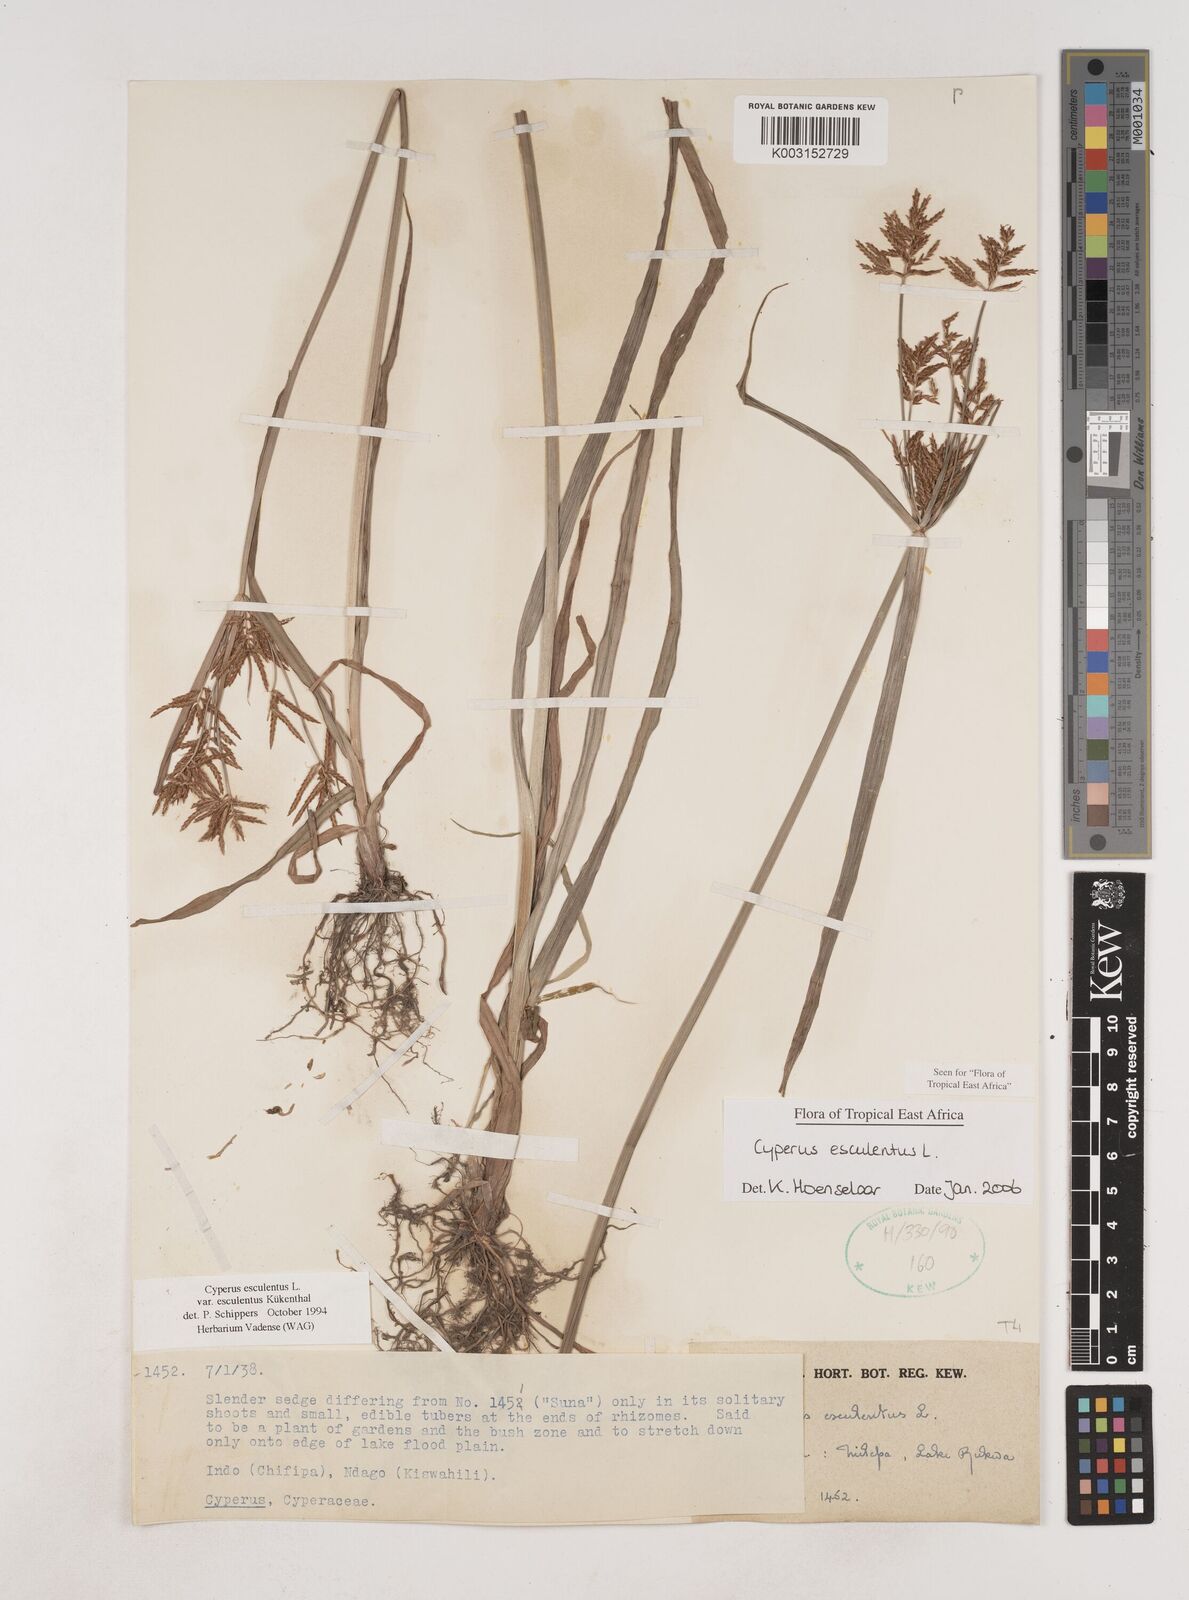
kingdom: Plantae
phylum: Tracheophyta
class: Liliopsida
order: Poales
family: Cyperaceae
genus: Cyperus
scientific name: Cyperus esculentus
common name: Yellow nutsedge
